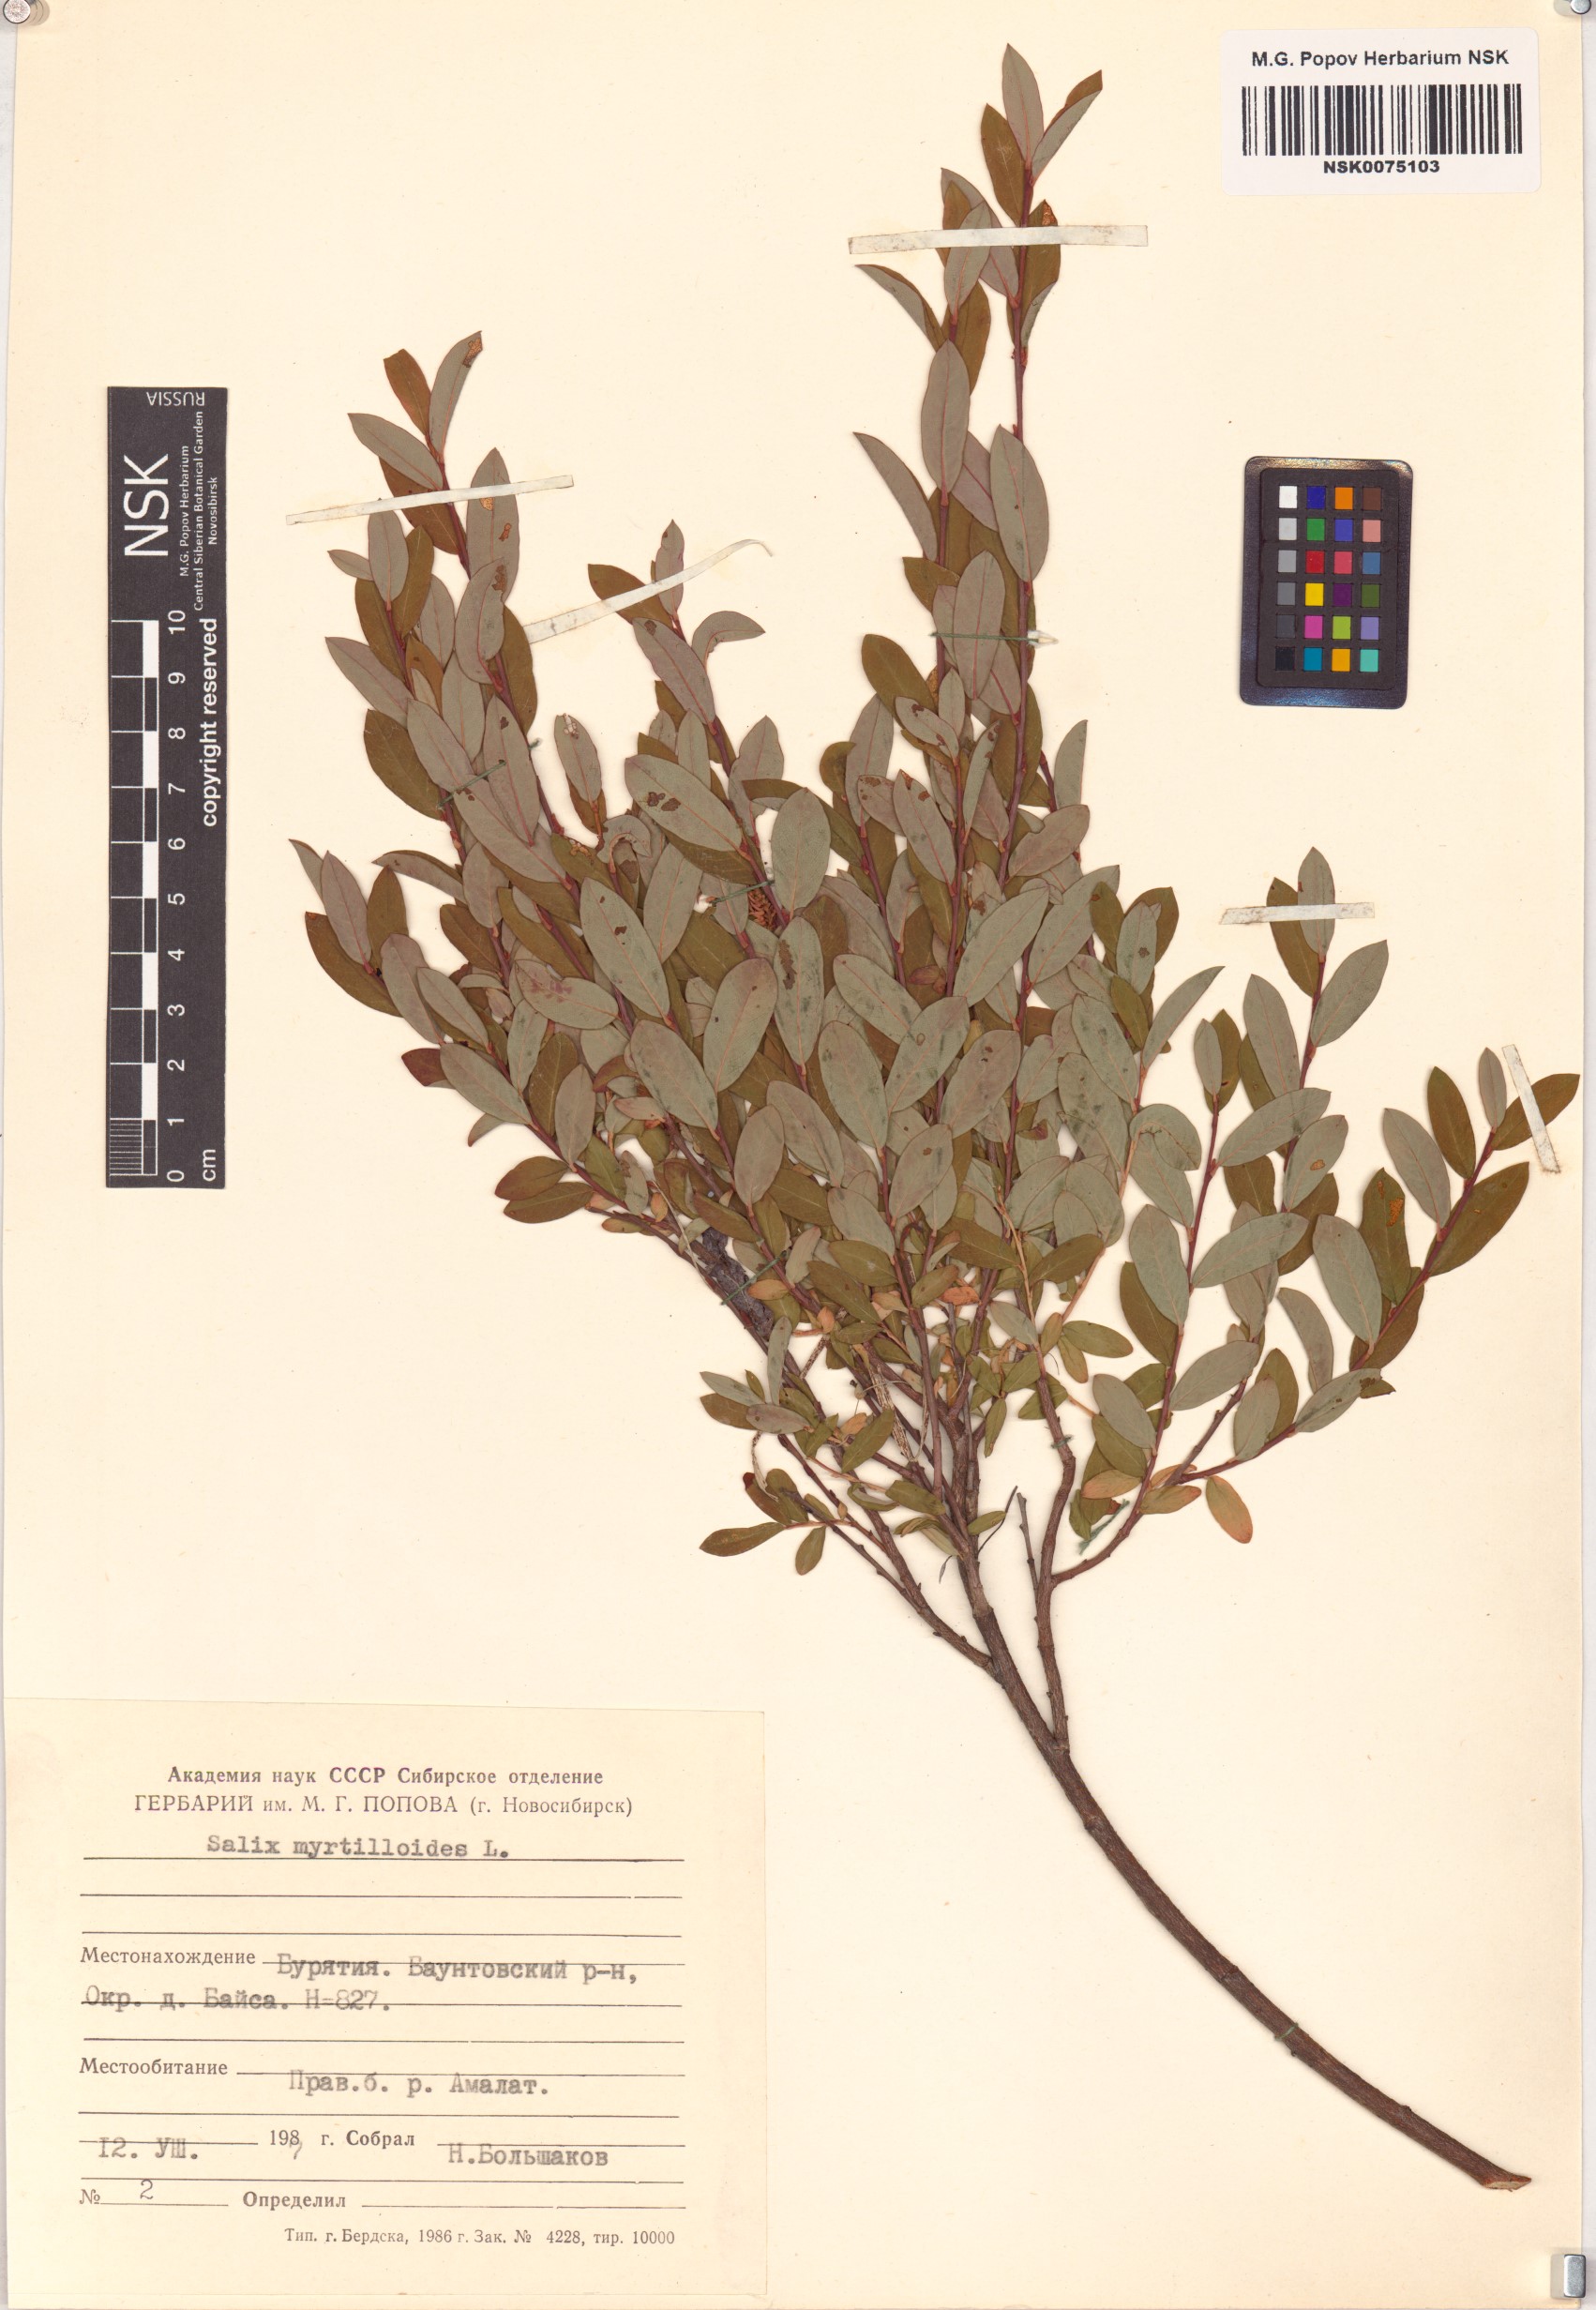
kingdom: Plantae
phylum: Tracheophyta
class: Magnoliopsida
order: Malpighiales
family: Salicaceae
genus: Salix
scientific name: Salix myrtilloides
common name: Myrtle-leaved willow
